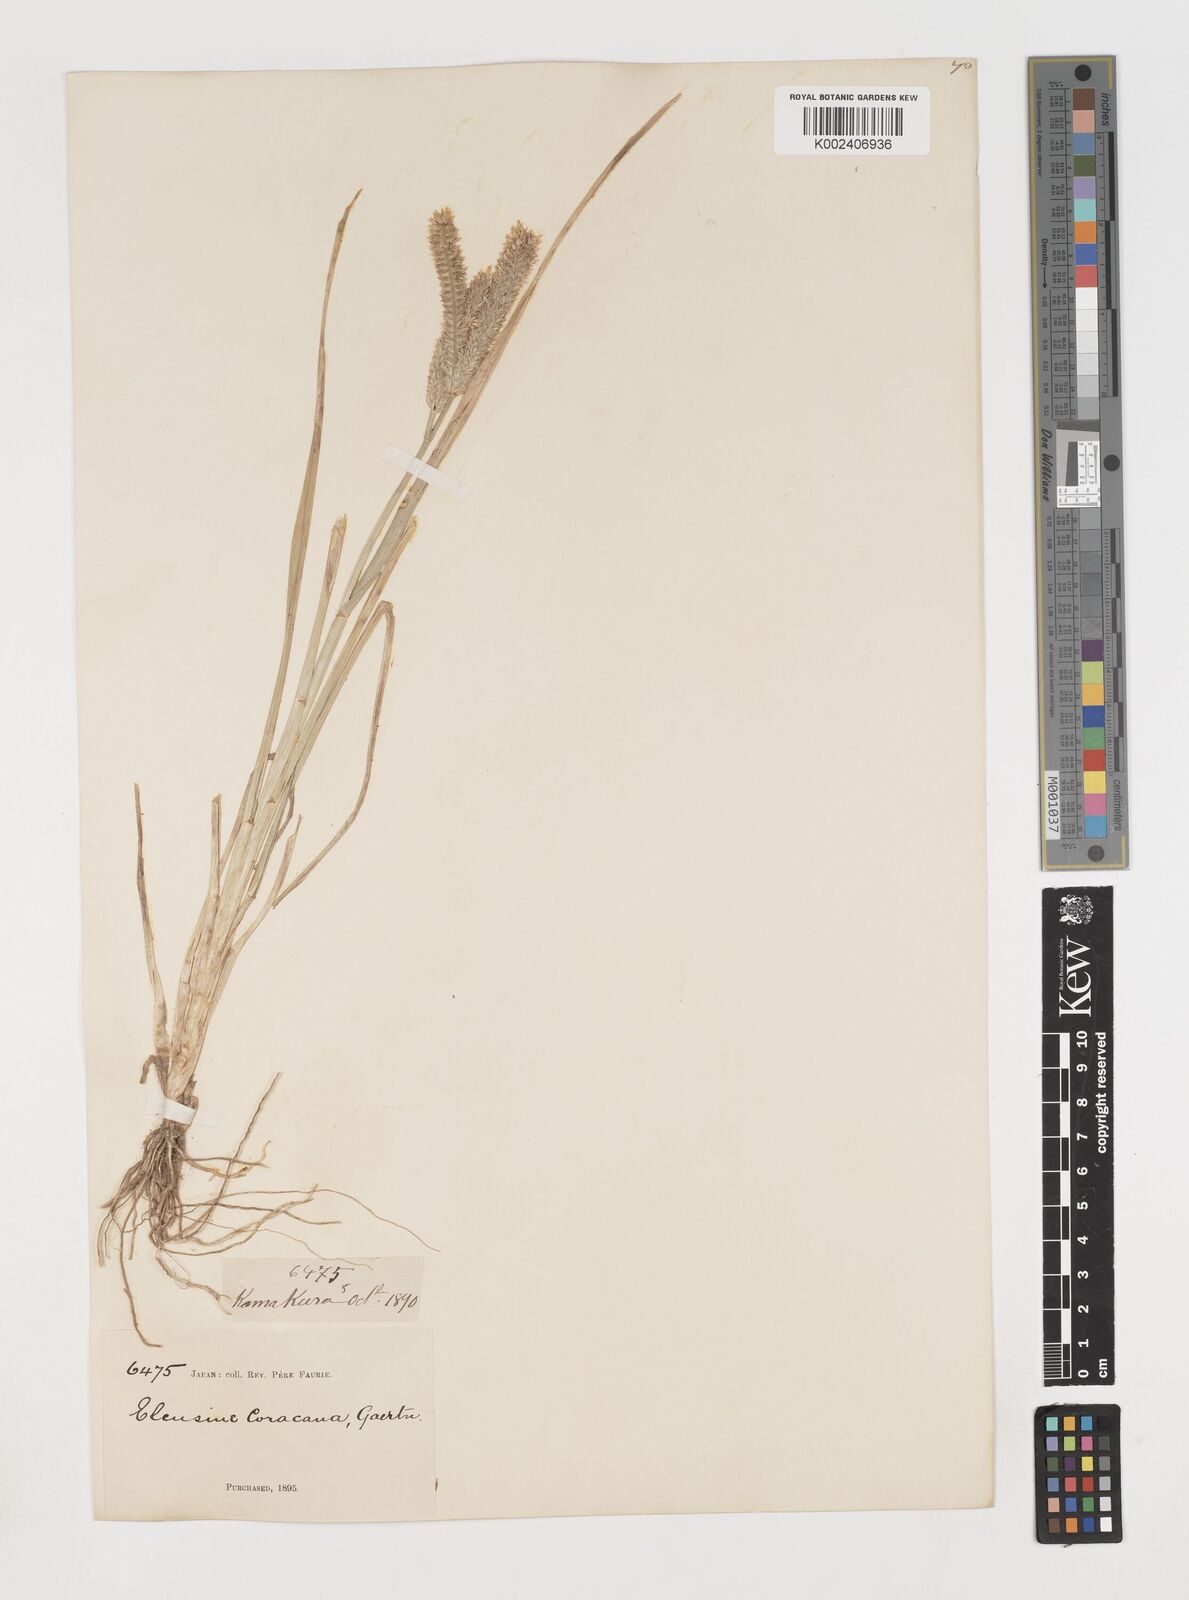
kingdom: Plantae
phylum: Tracheophyta
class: Liliopsida
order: Poales
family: Poaceae
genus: Eleusine
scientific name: Eleusine coracana
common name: Finger millet
